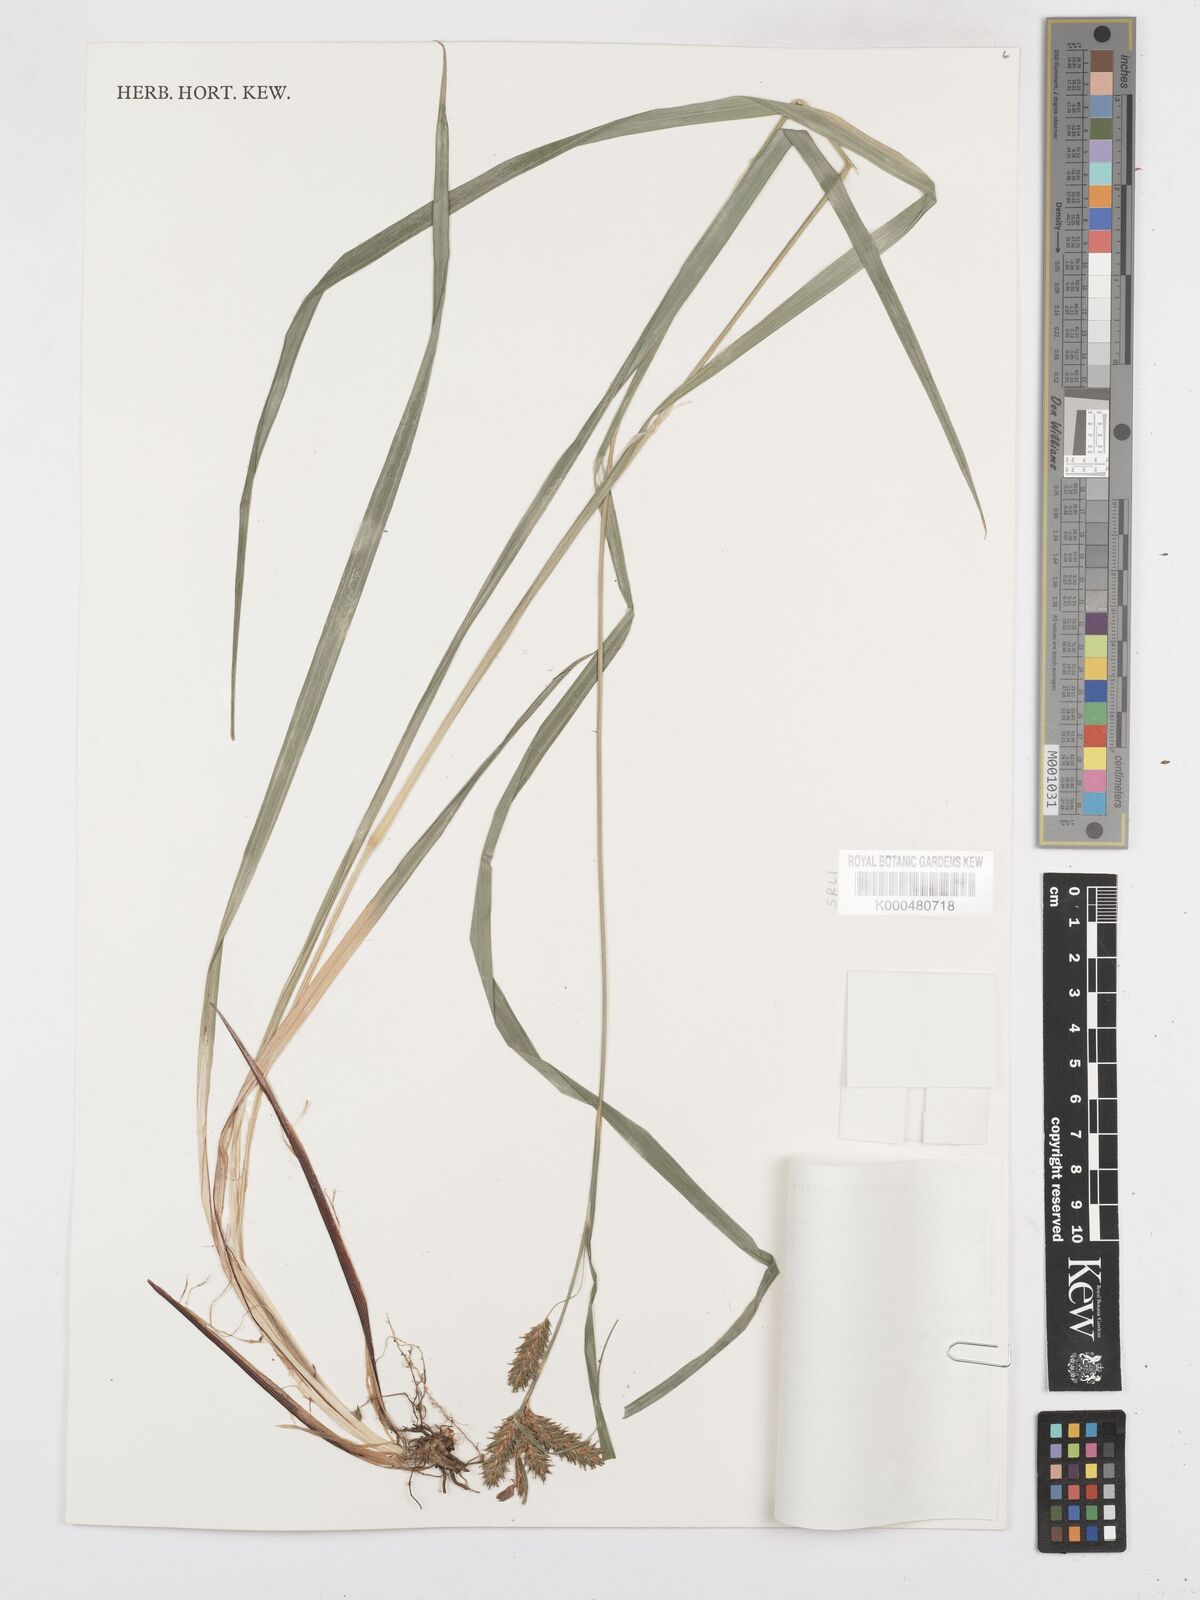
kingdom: Plantae
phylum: Tracheophyta
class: Liliopsida
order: Poales
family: Cyperaceae
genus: Carex
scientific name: Carex aethiopica
